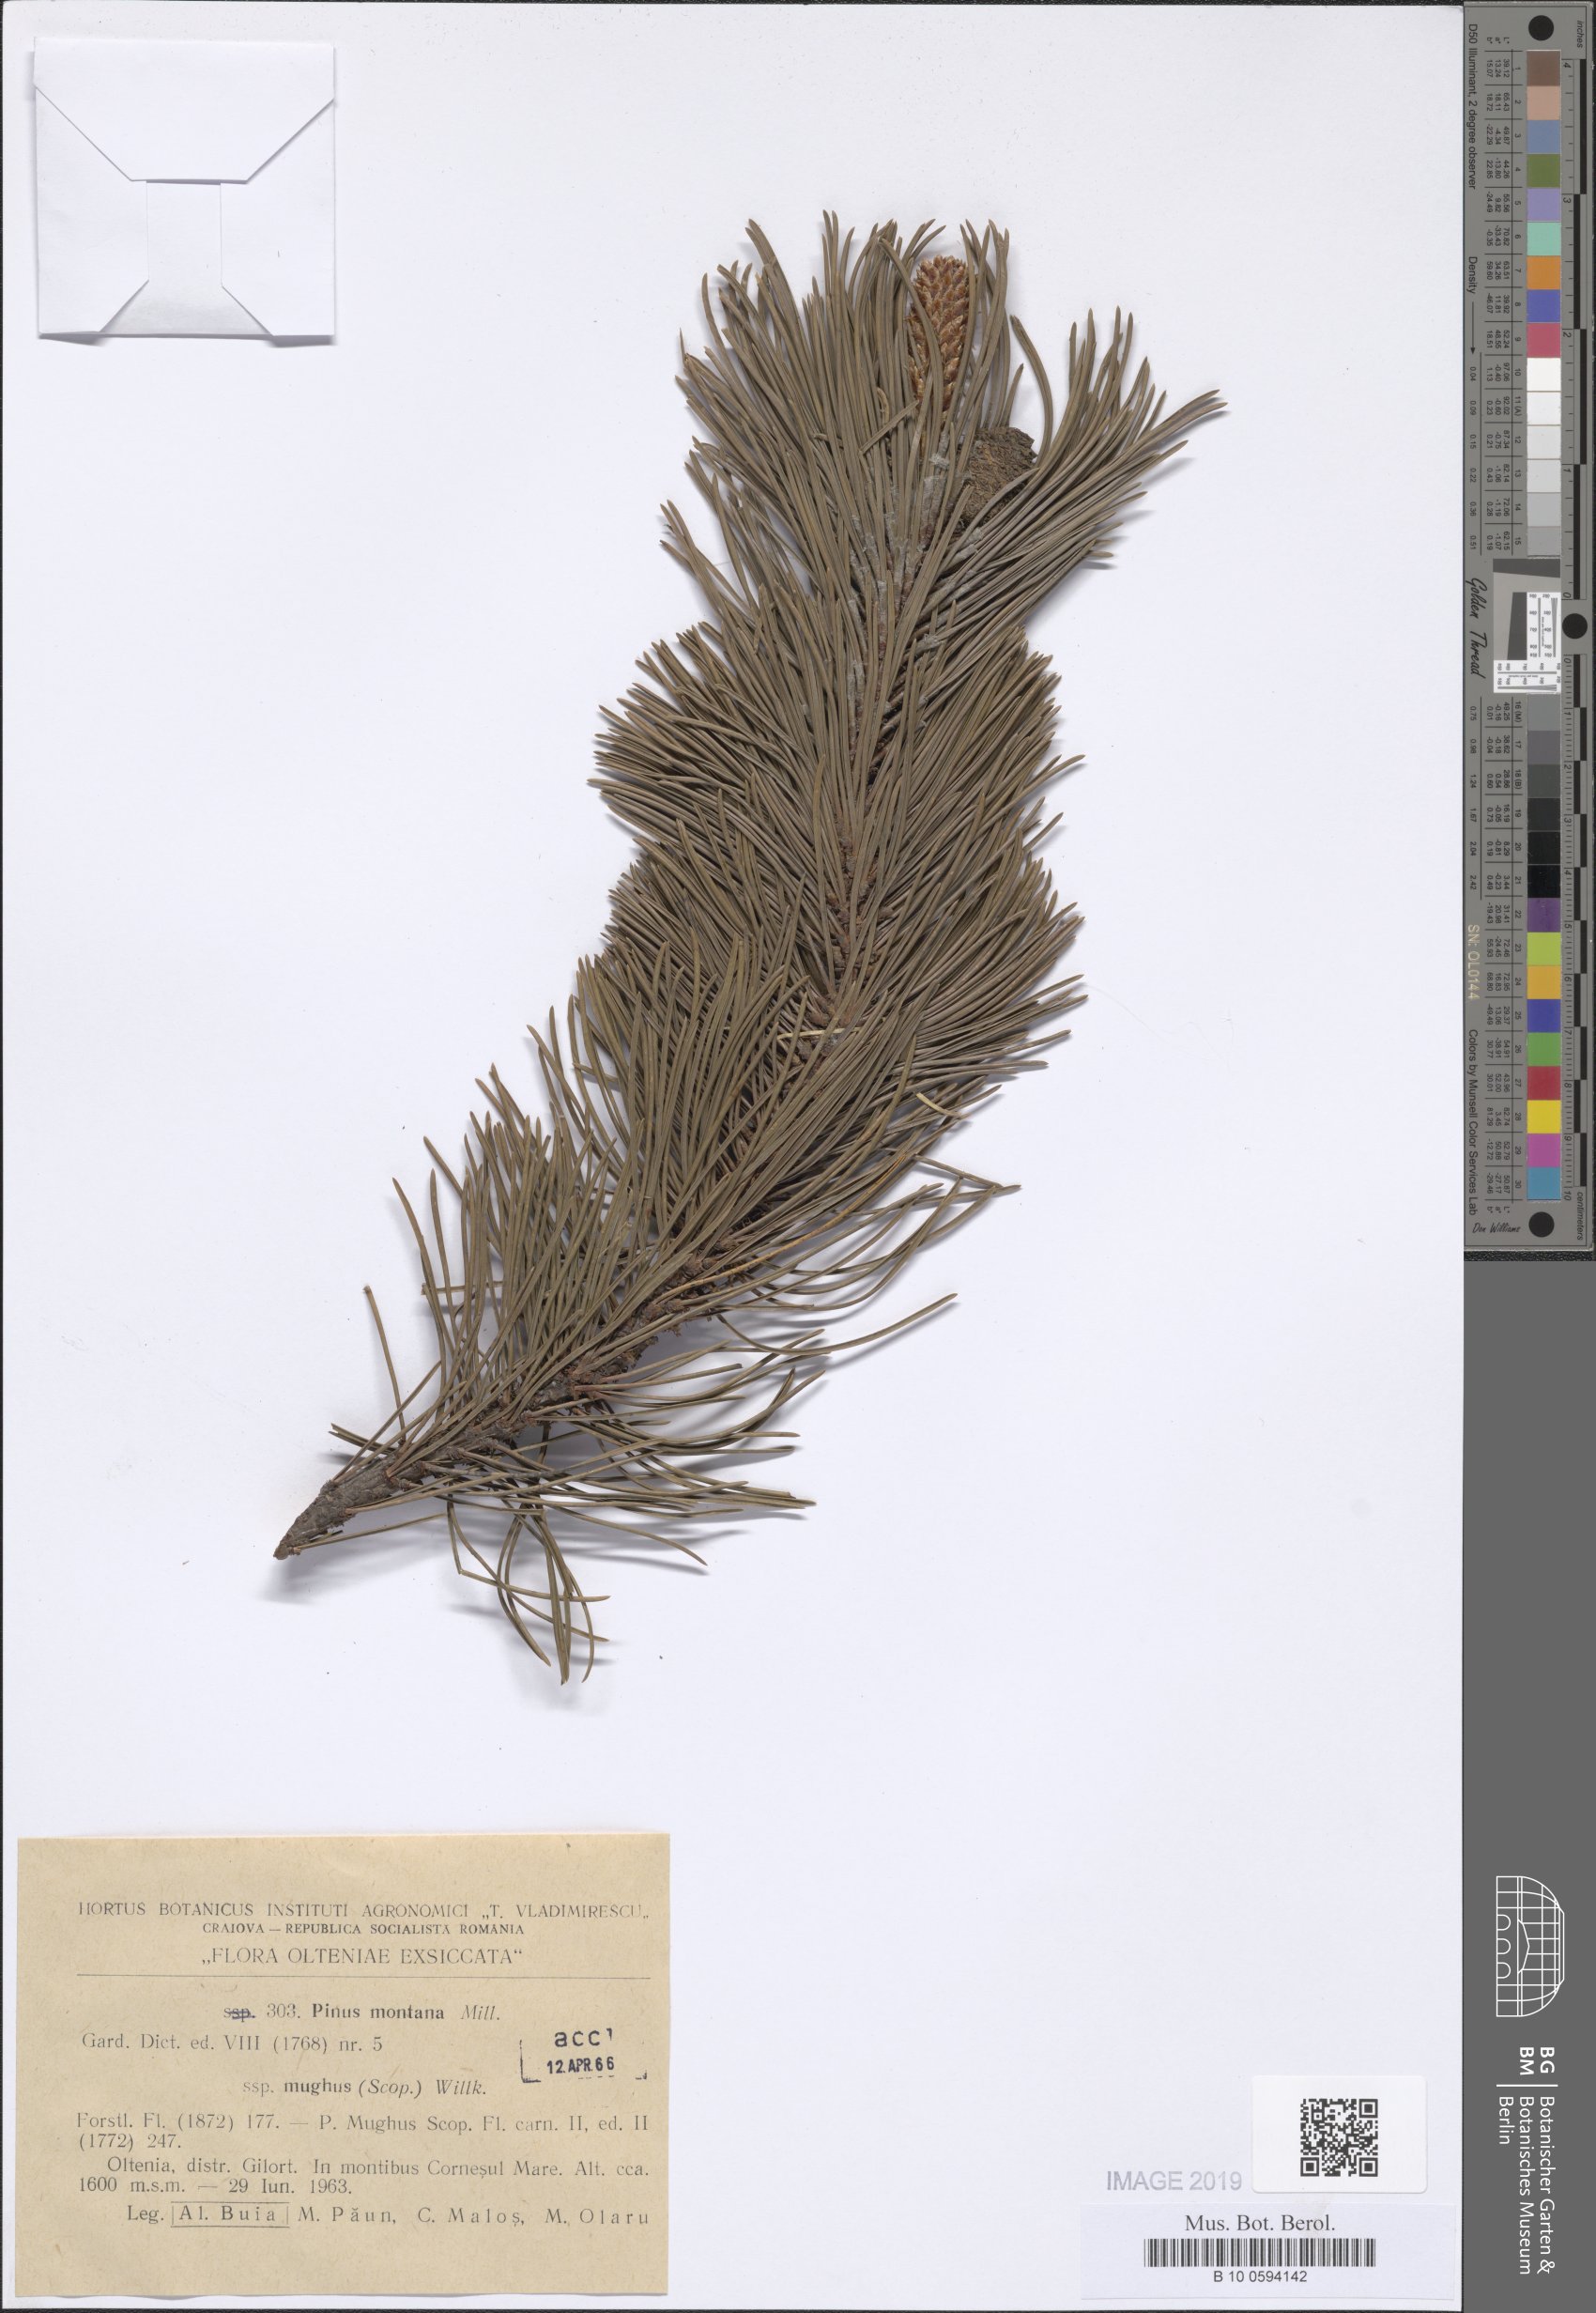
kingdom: Plantae
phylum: Tracheophyta
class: Pinopsida
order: Pinales
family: Pinaceae
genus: Pinus
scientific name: Pinus mugo
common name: Mugo pine
